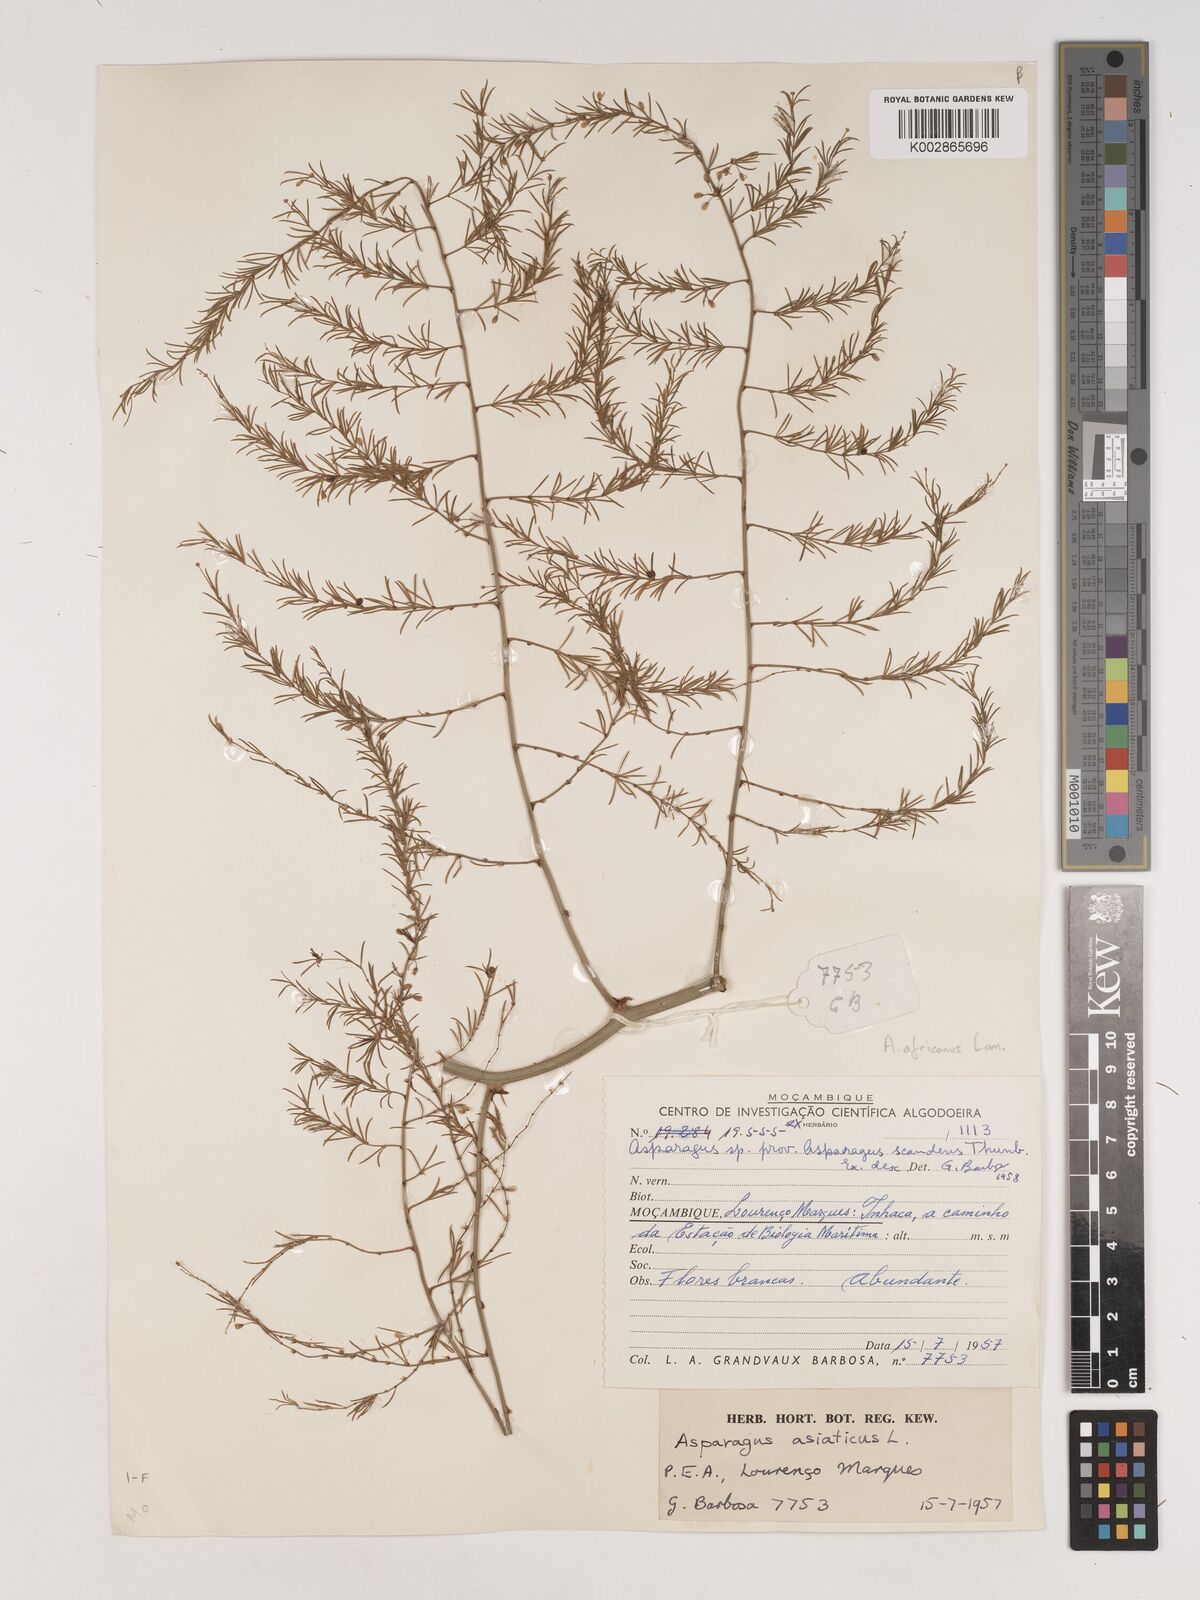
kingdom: Plantae
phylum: Tracheophyta
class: Liliopsida
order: Asparagales
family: Asparagaceae
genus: Asparagus
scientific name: Asparagus africanus
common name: Asparagus-fern
